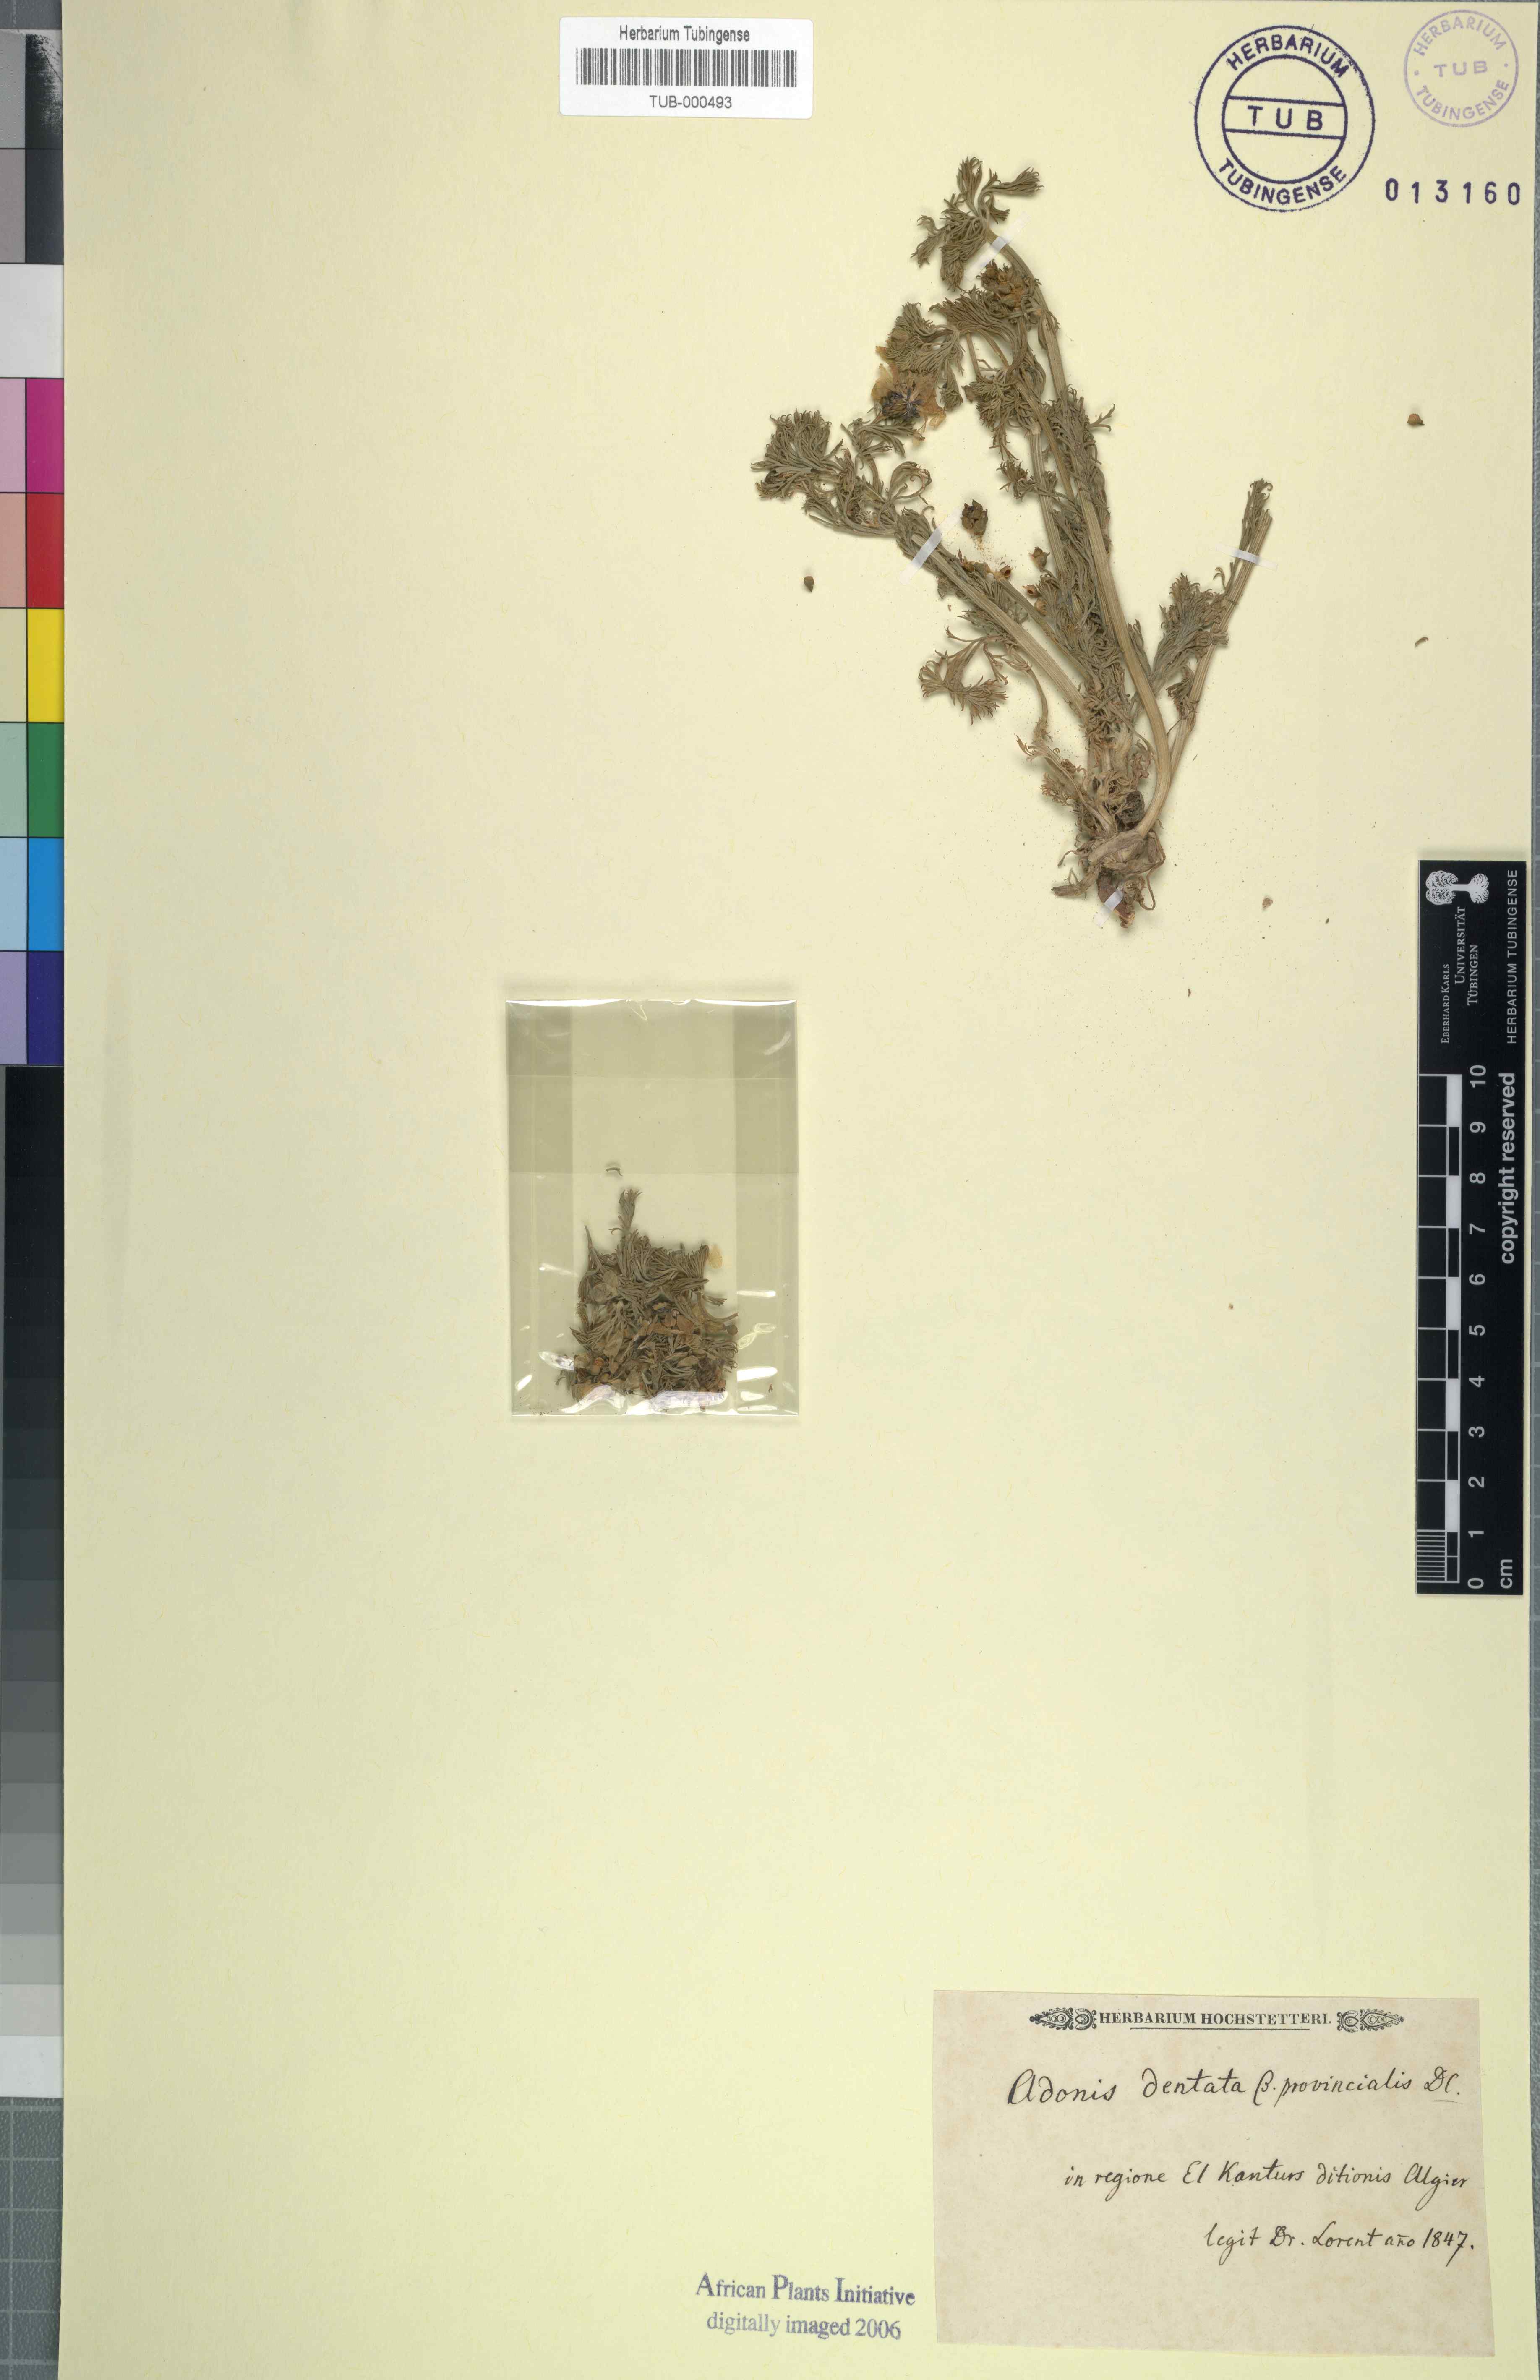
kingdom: Plantae
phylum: Tracheophyta
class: Magnoliopsida
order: Ranunculales
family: Ranunculaceae
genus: Adonis
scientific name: Adonis dentata
